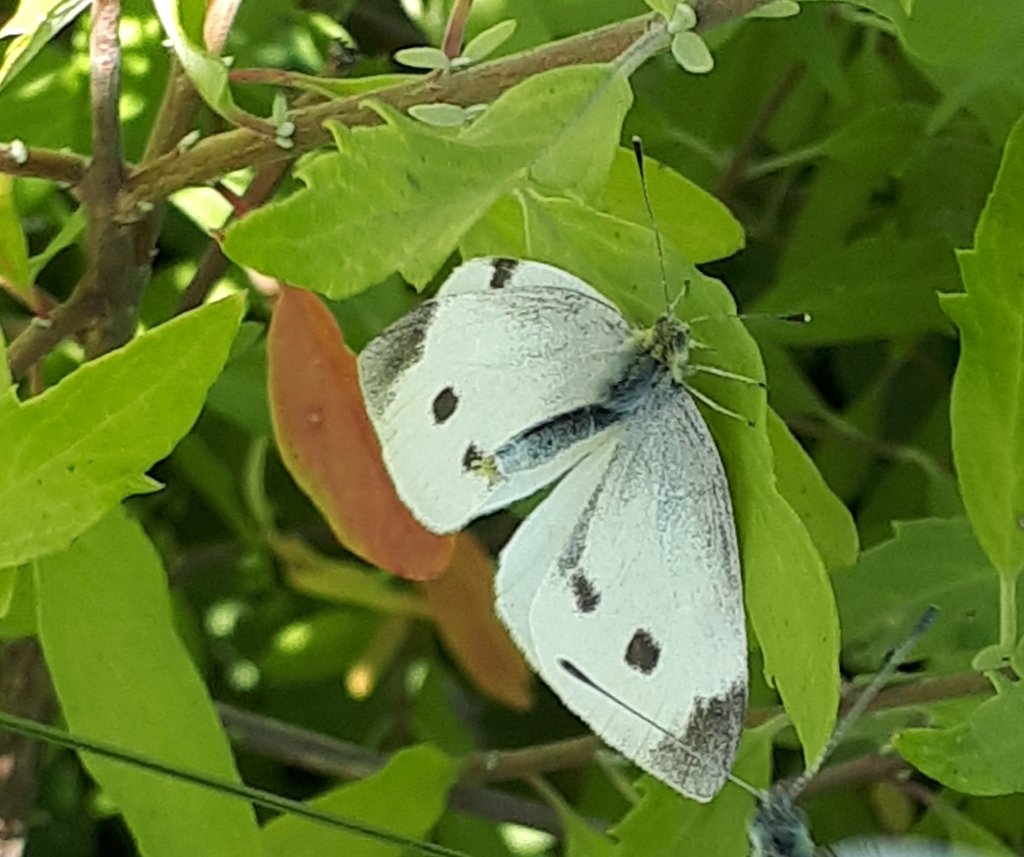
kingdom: Animalia
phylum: Arthropoda
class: Insecta
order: Lepidoptera
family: Pieridae
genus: Pieris
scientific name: Pieris rapae
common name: Cabbage White
